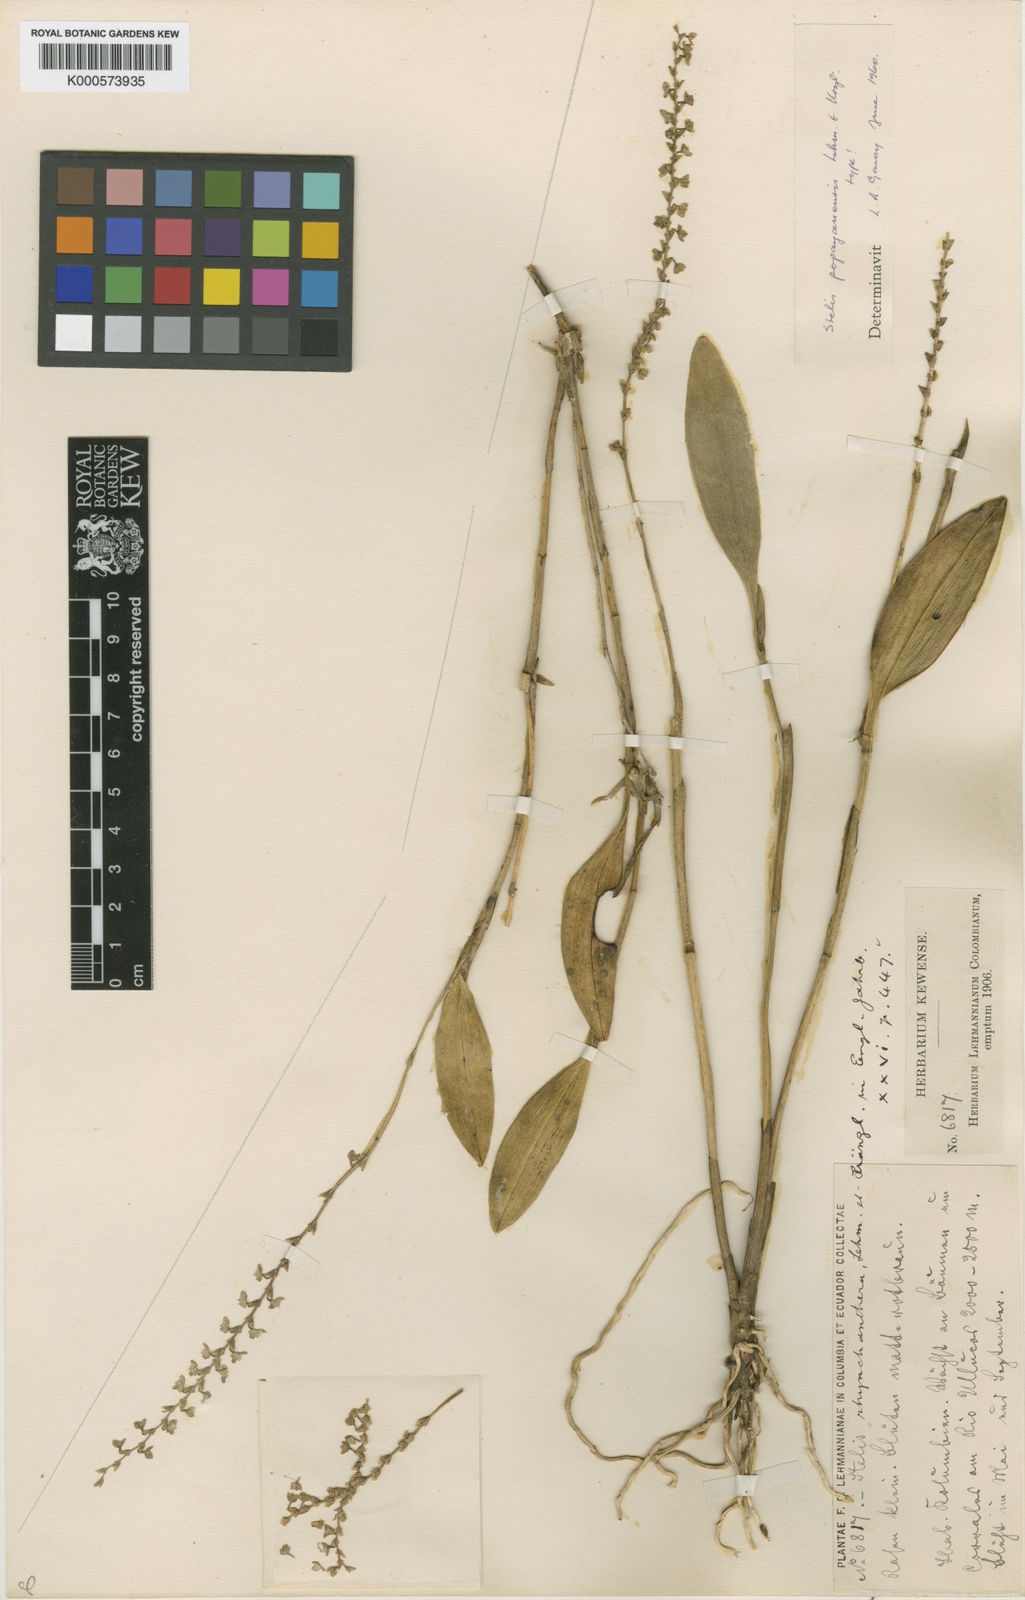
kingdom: Plantae
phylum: Tracheophyta
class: Liliopsida
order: Asparagales
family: Orchidaceae
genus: Stelis
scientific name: Stelis popayanensis
